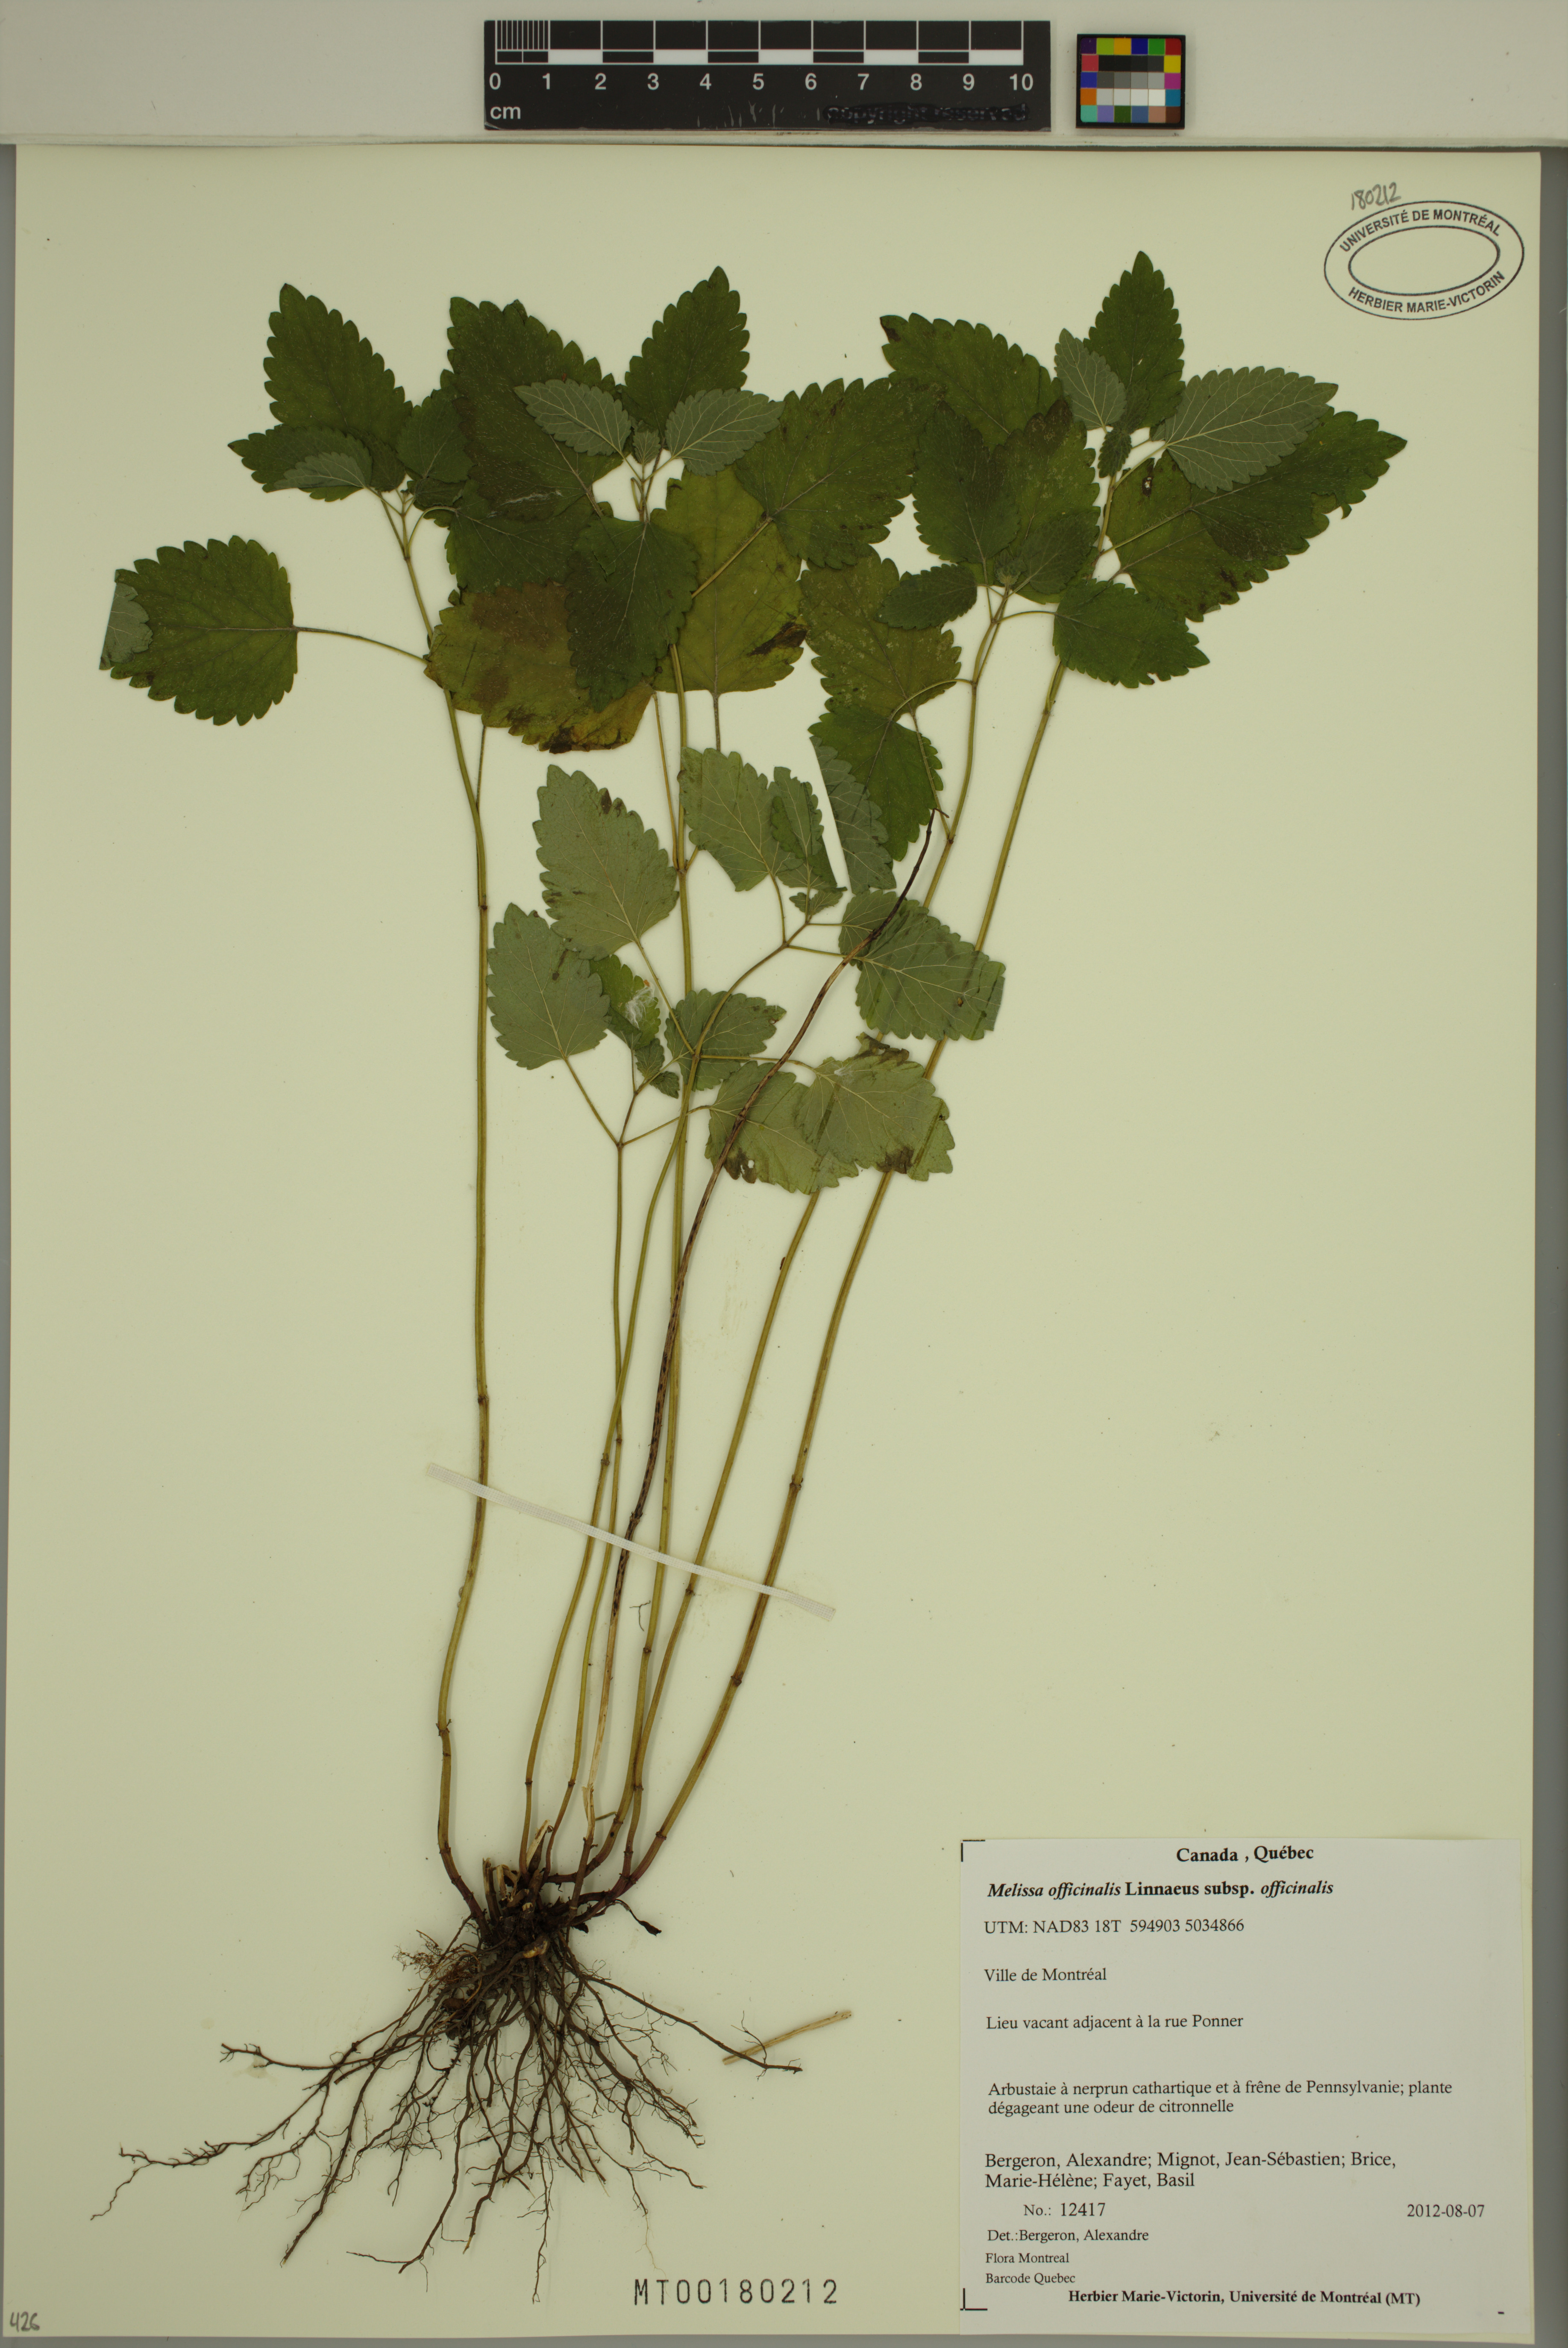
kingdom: Plantae
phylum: Tracheophyta
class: Magnoliopsida
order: Lamiales
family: Lamiaceae
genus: Melissa
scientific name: Melissa officinalis
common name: Balm
